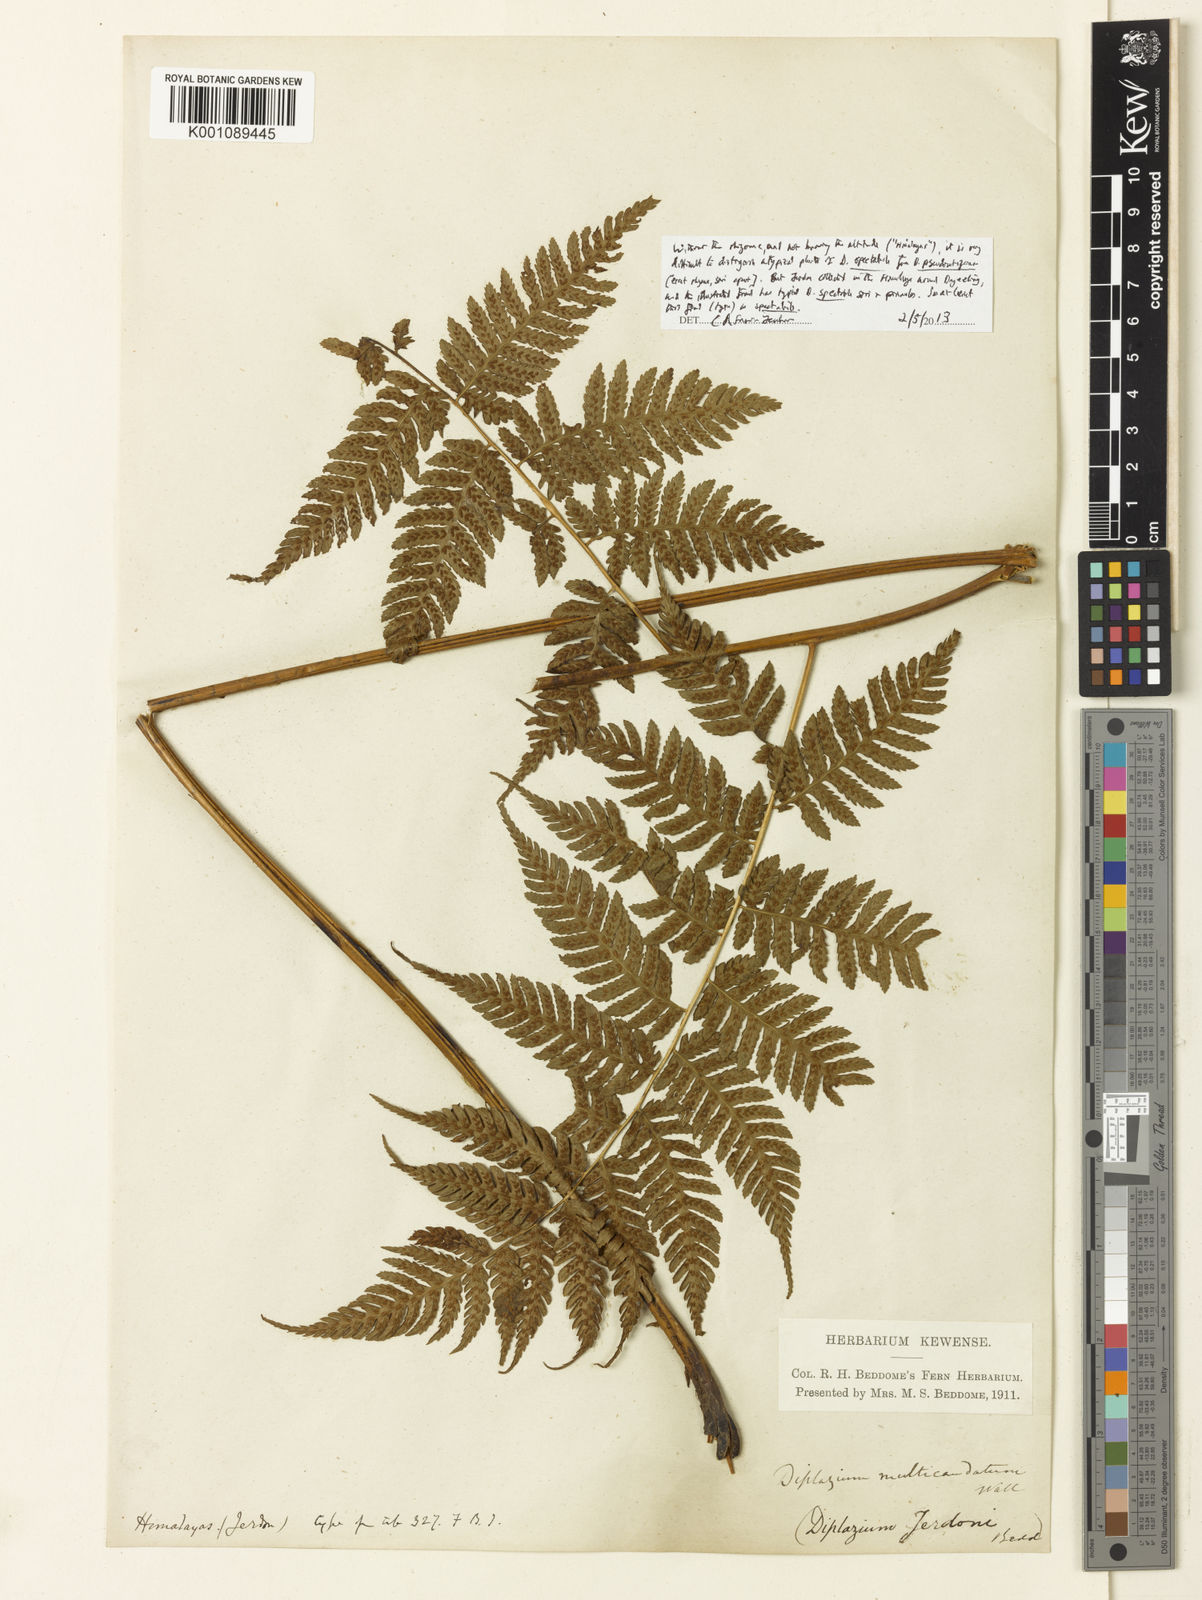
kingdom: Plantae
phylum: Tracheophyta
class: Polypodiopsida
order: Polypodiales
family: Athyriaceae
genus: Diplazium
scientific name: Diplazium spectabile
